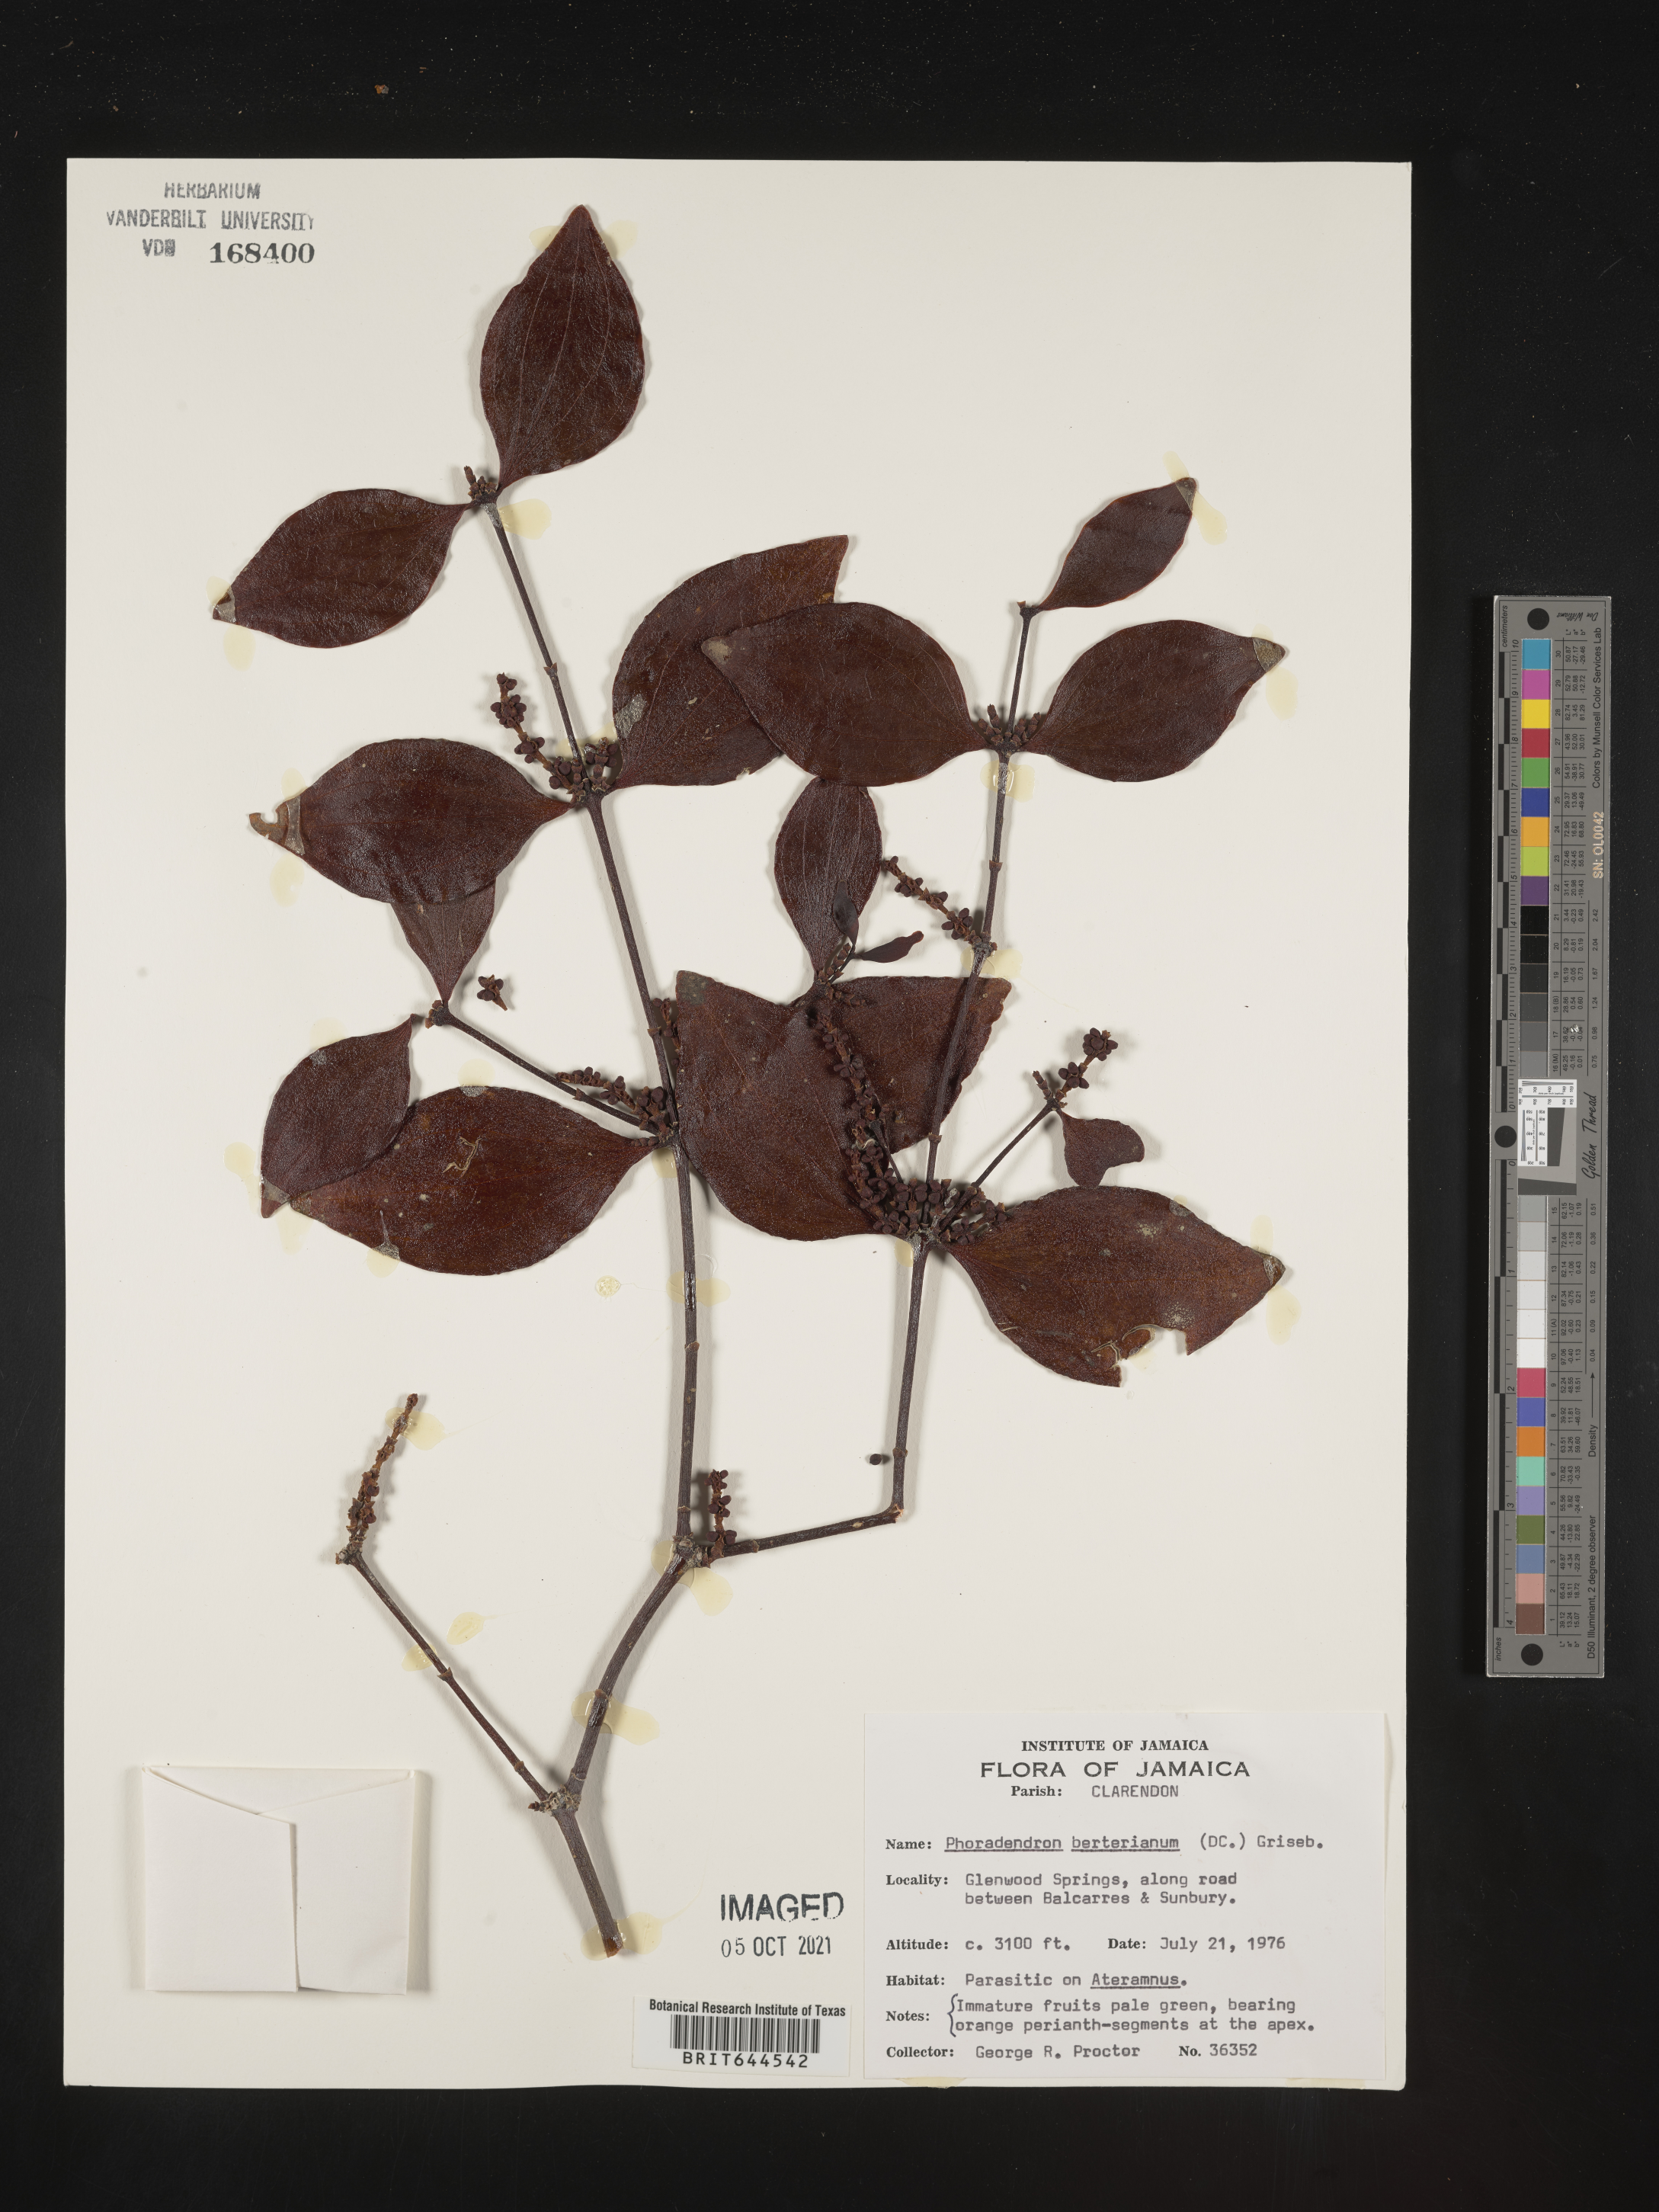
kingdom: Plantae
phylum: Tracheophyta
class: Magnoliopsida
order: Santalales
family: Viscaceae
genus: Phoradendron
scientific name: Phoradendron
